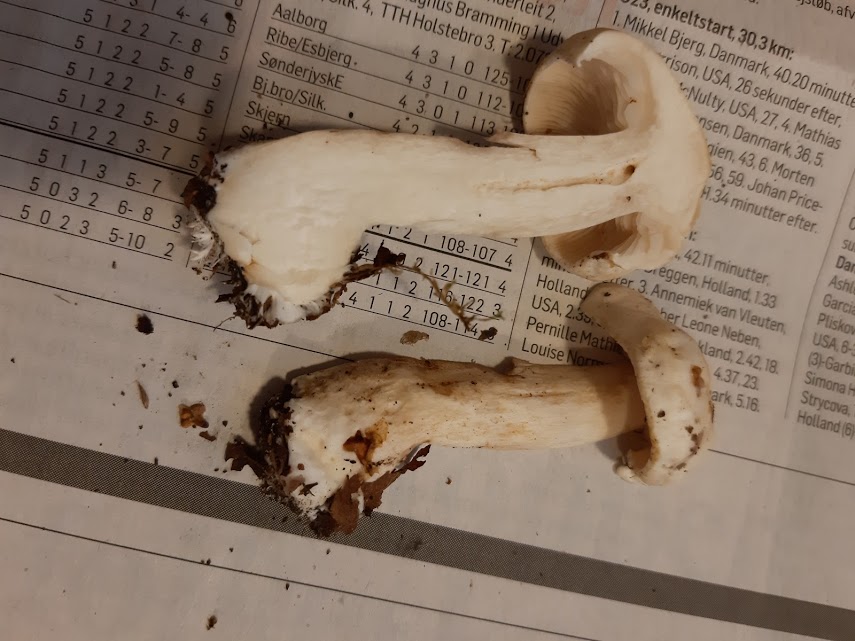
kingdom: Fungi
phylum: Basidiomycota
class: Agaricomycetes
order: Agaricales
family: Tricholomataceae
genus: Tricholoma
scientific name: Tricholoma stiparophyllum
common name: hvid ridderhat
